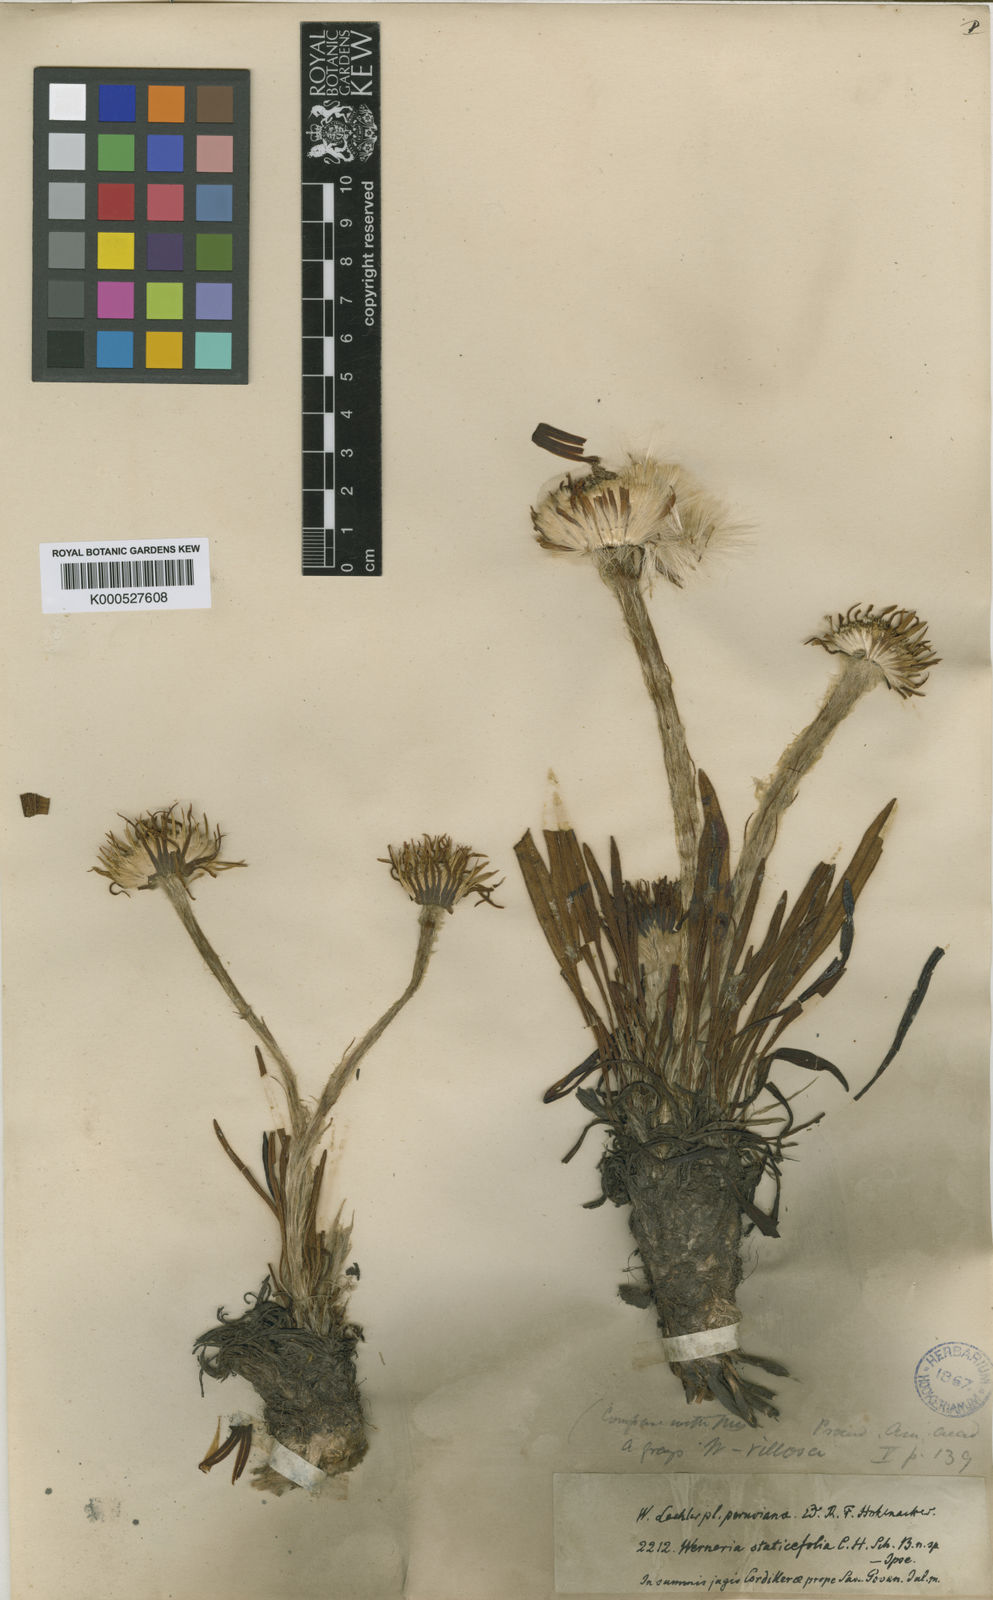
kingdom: Plantae
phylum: Tracheophyta
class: Magnoliopsida
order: Asterales
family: Asteraceae
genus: Rockhausenia
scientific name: Rockhausenia staticifolia
